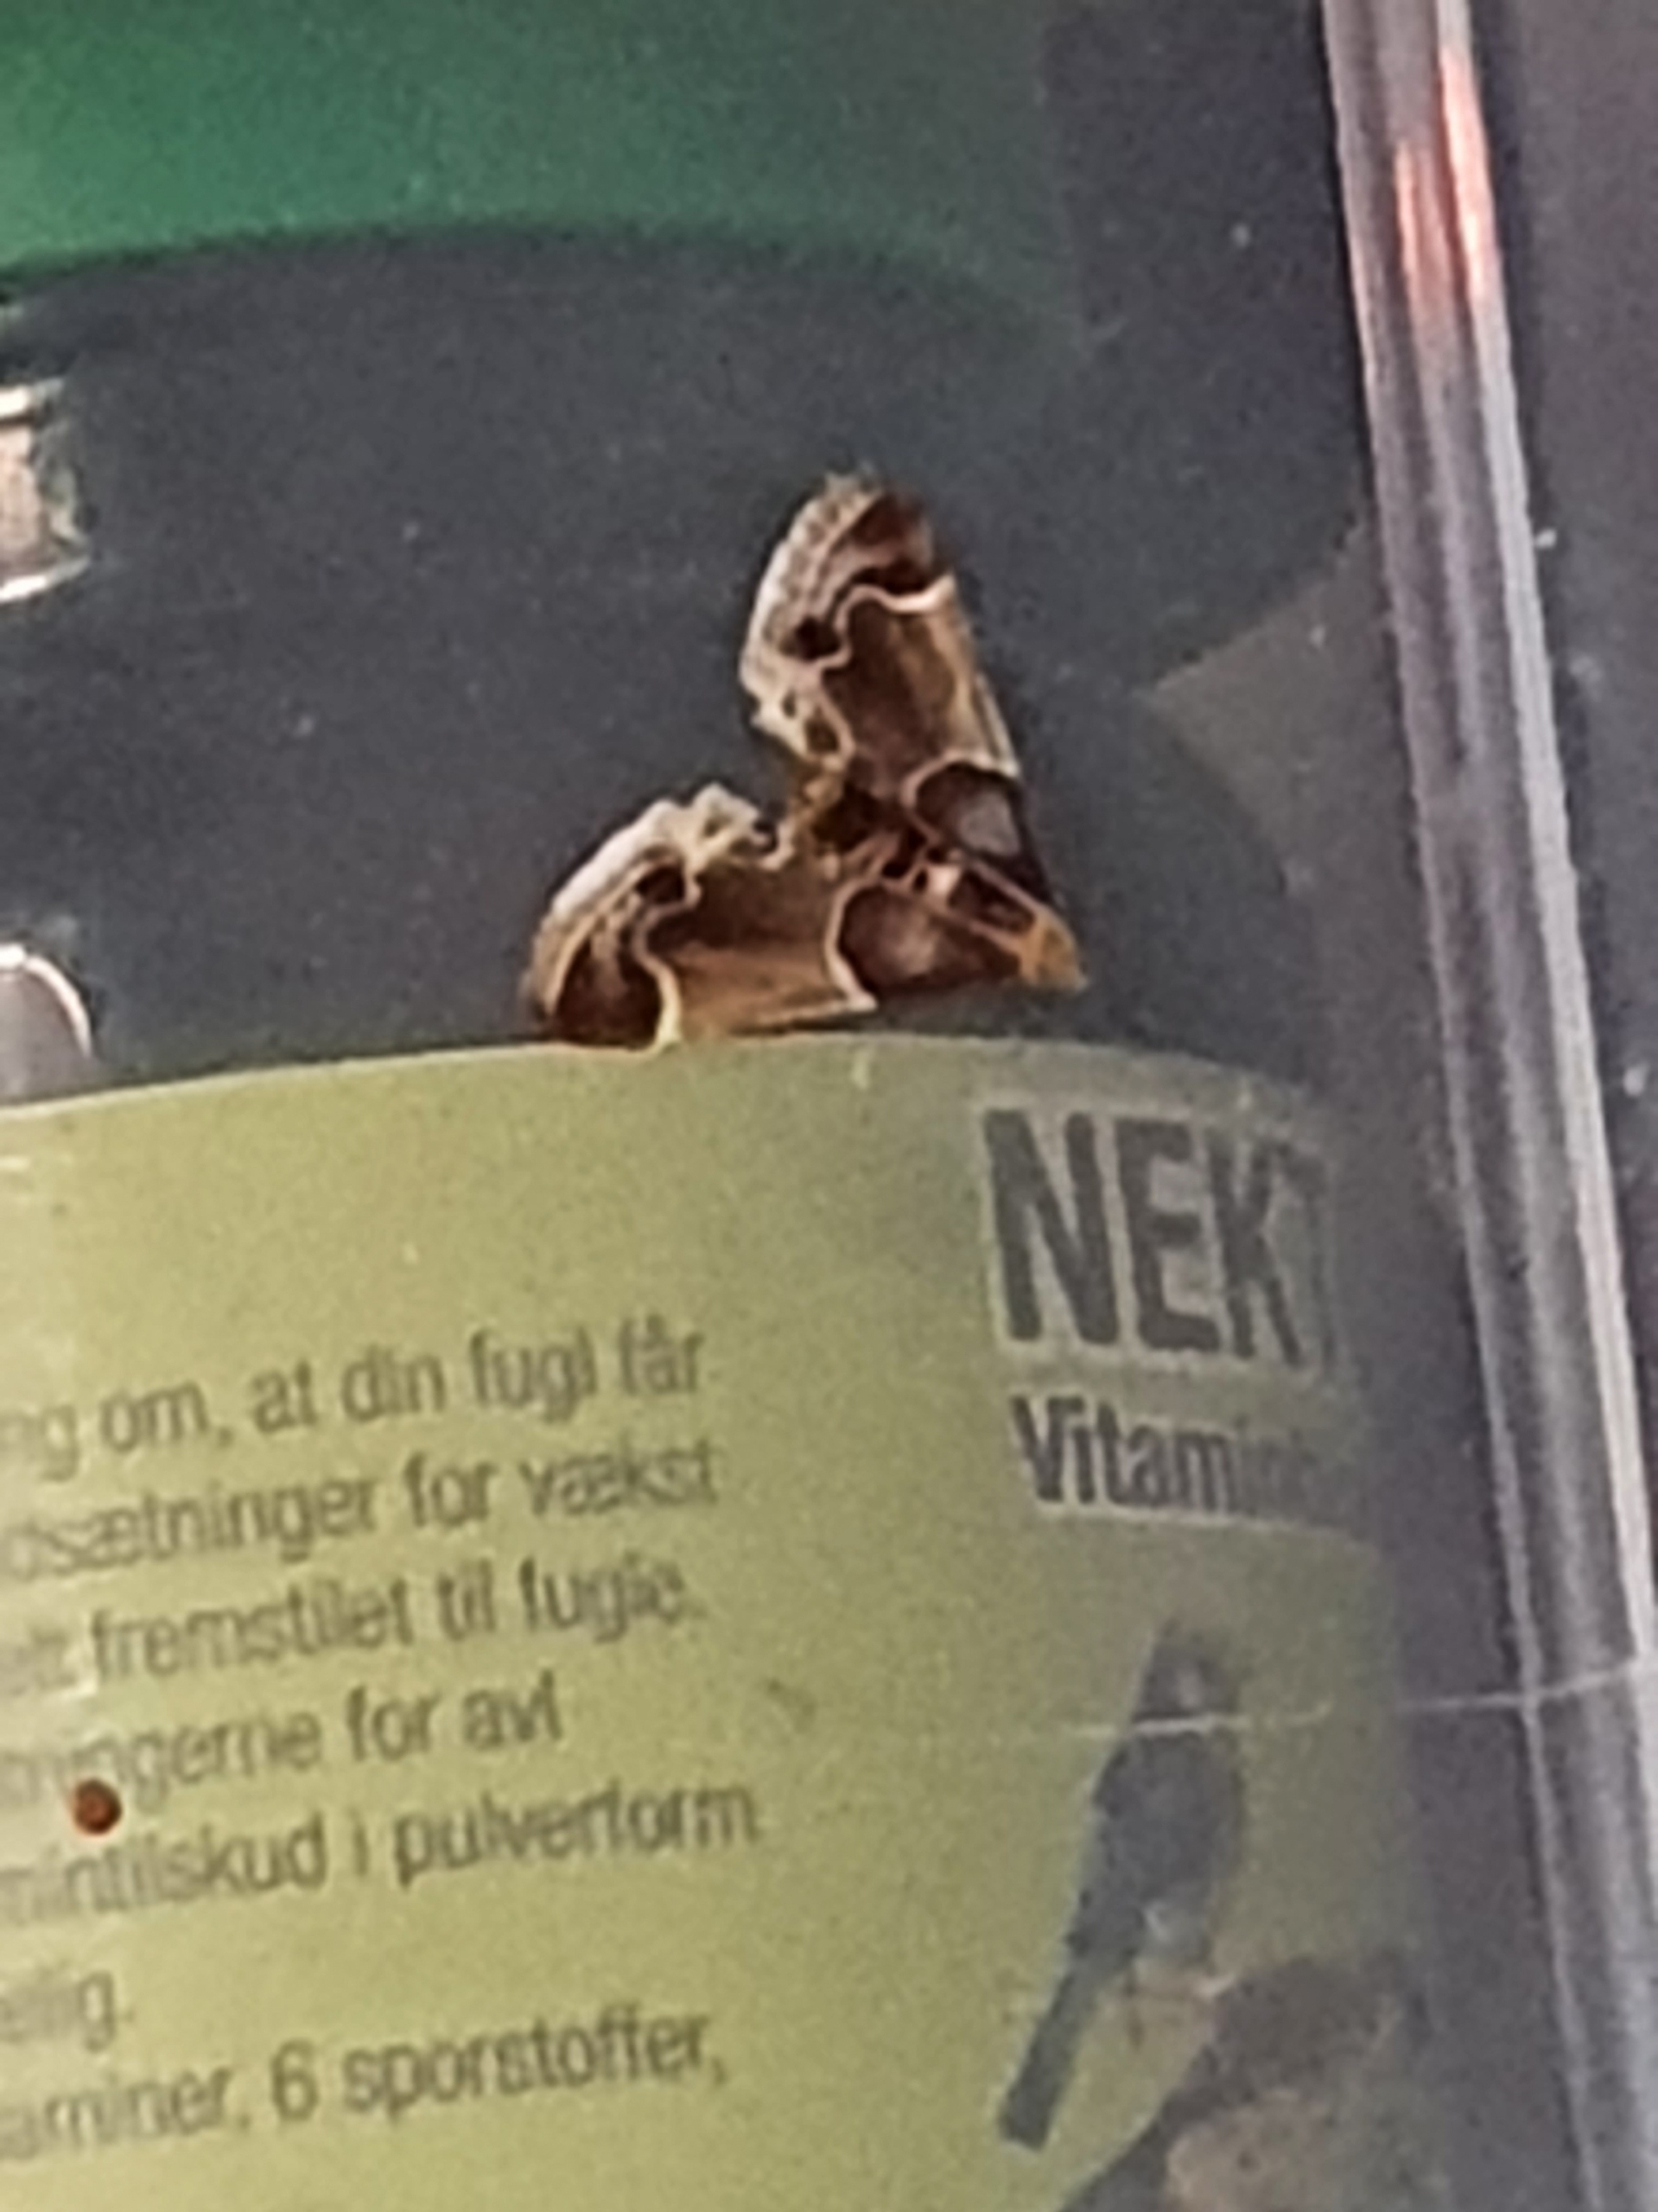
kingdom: Animalia
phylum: Arthropoda
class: Insecta
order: Lepidoptera
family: Pyralidae
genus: Pyralis
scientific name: Pyralis farinalis
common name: Stort melmøl
